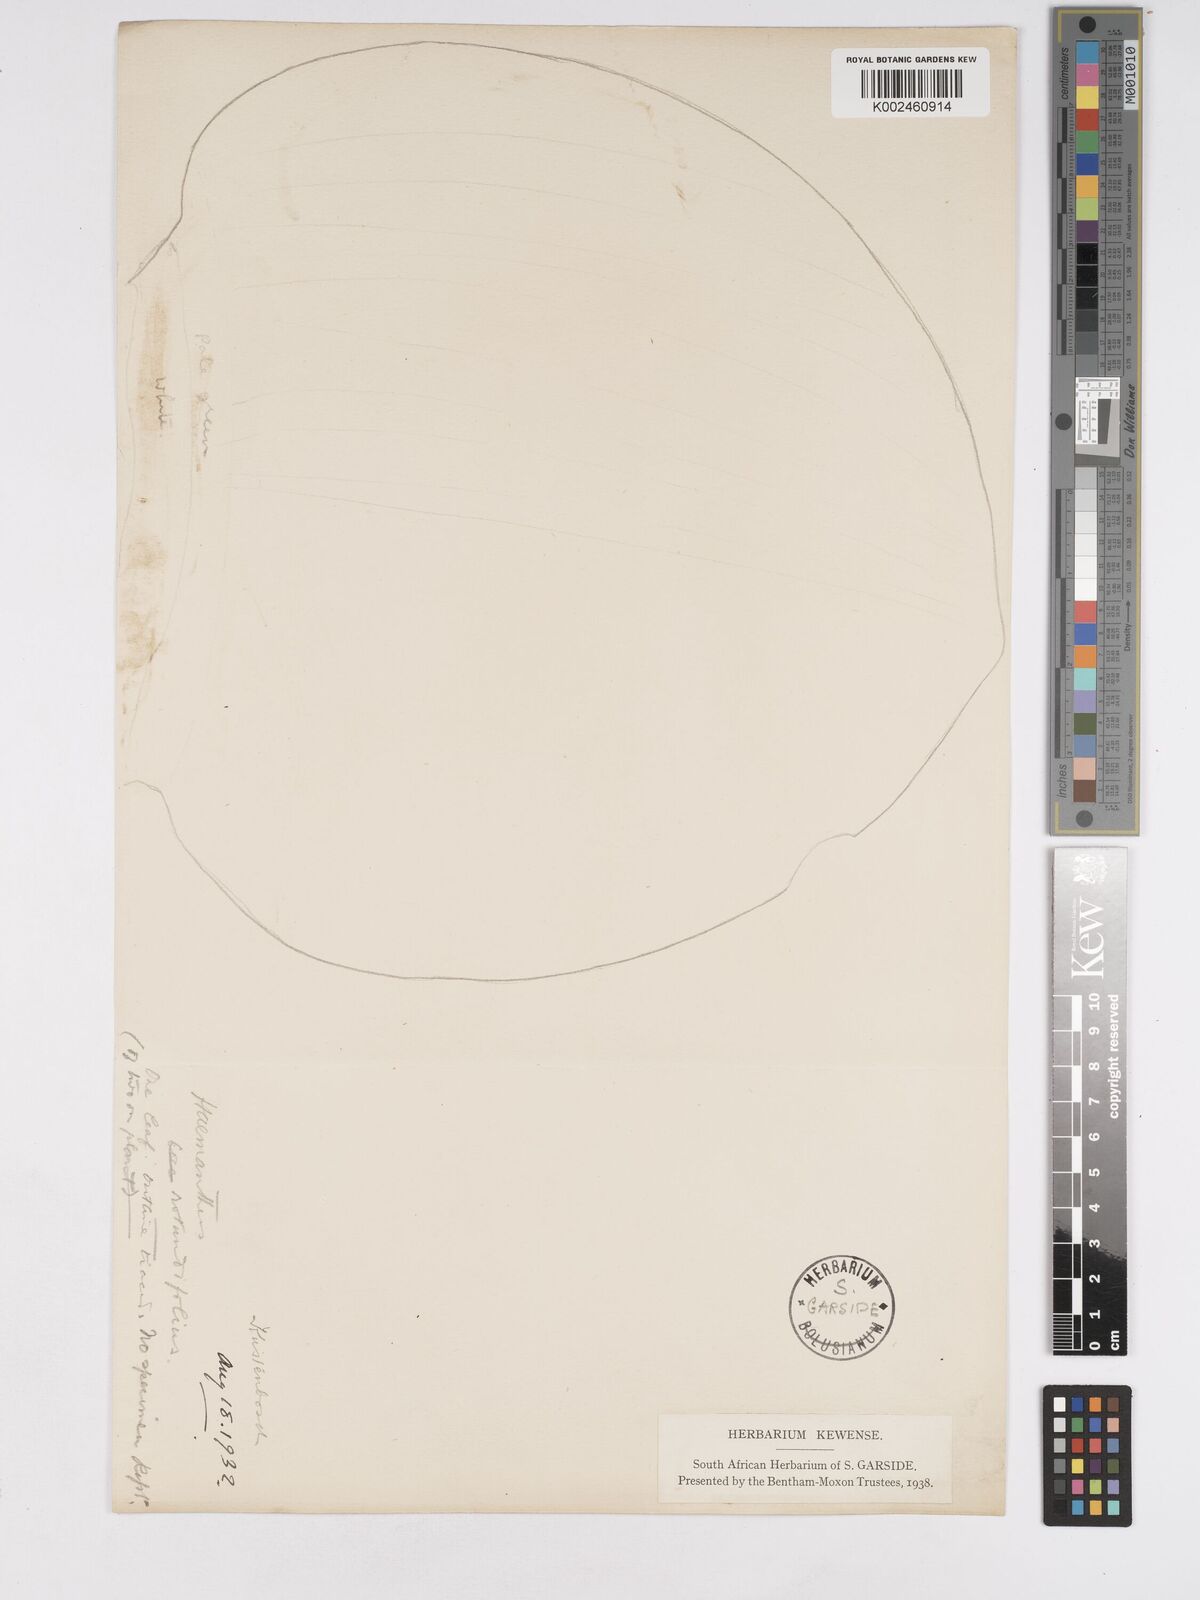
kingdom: Plantae
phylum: Tracheophyta
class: Liliopsida
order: Asparagales
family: Amaryllidaceae
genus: Haemanthus
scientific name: Haemanthus sanguineus
